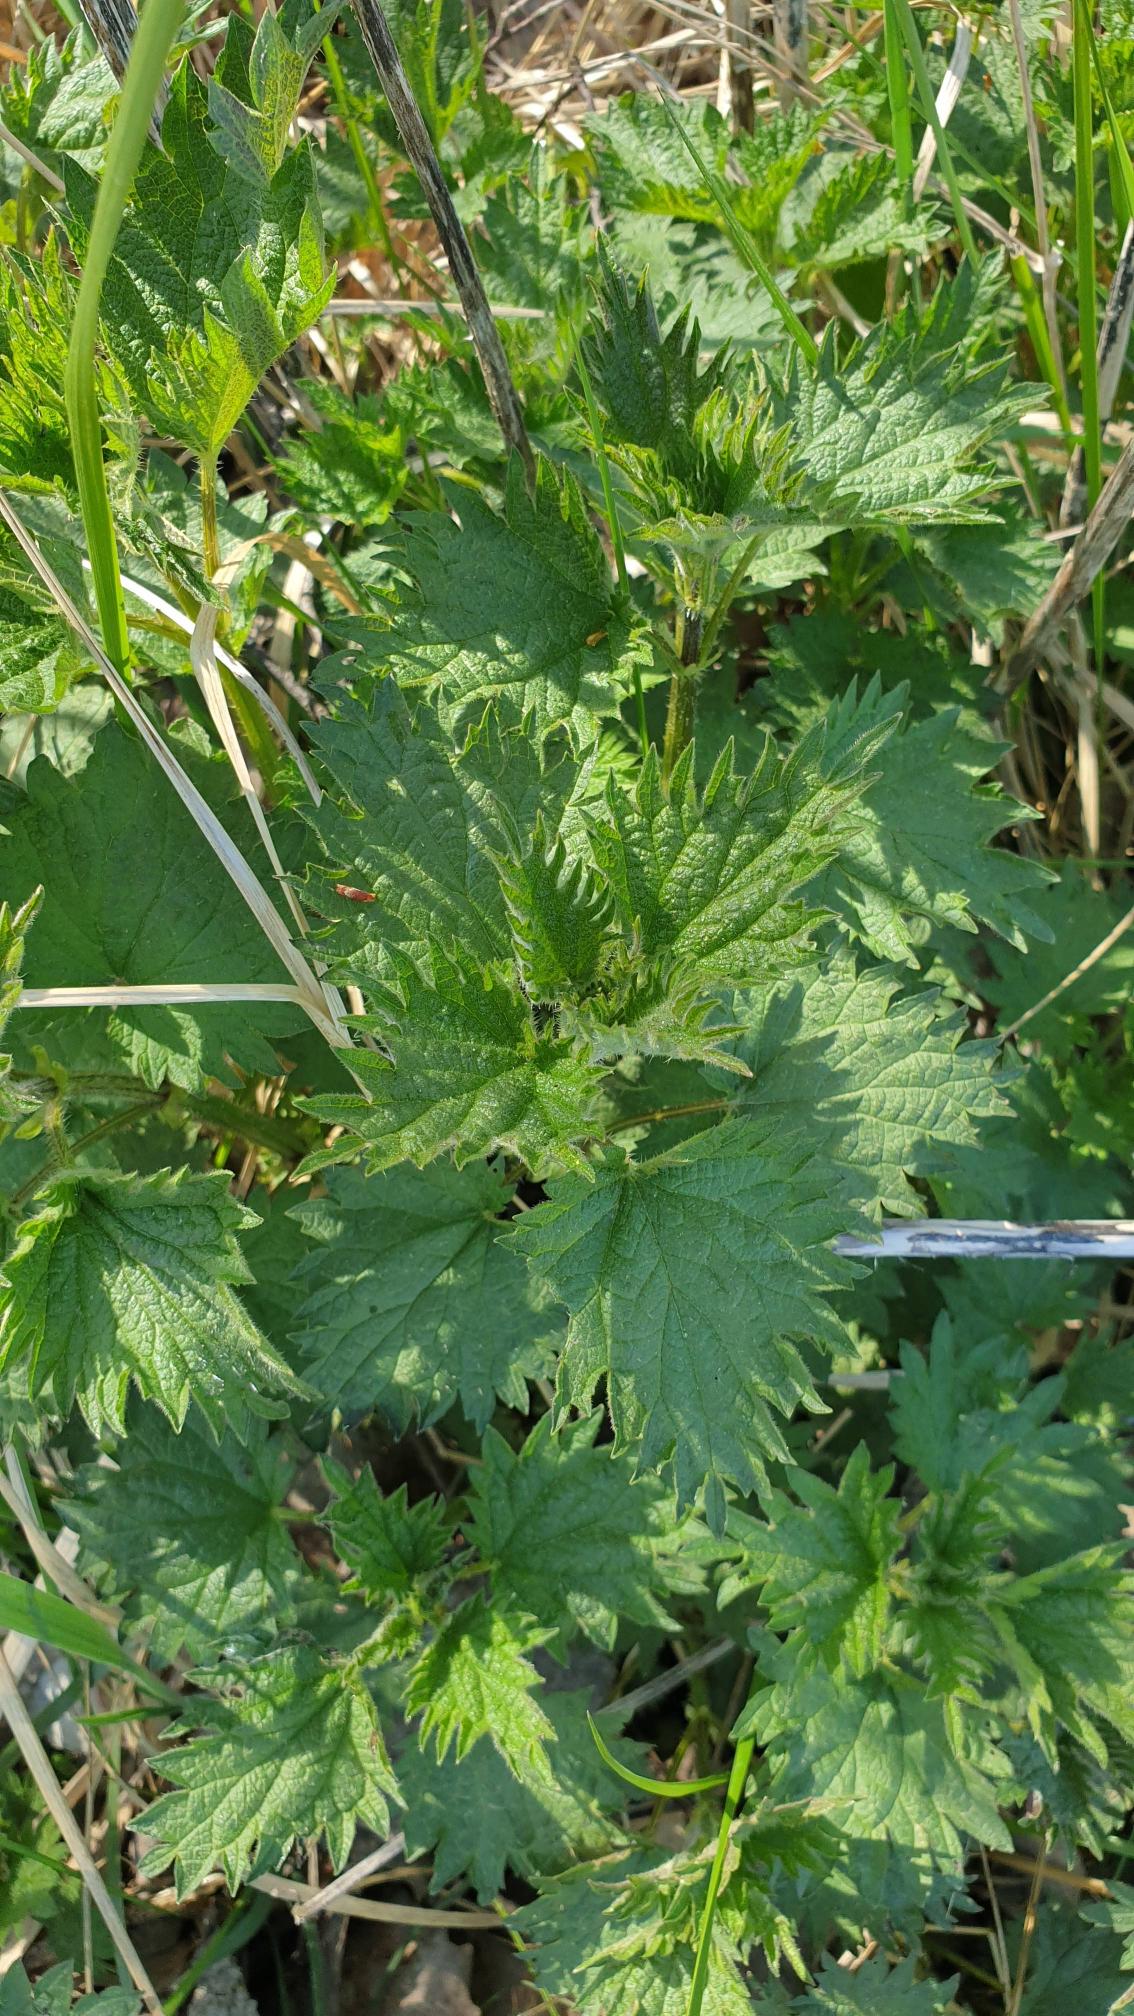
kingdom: Plantae
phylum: Tracheophyta
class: Magnoliopsida
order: Rosales
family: Urticaceae
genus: Urtica
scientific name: Urtica dioica
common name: Stor nælde
